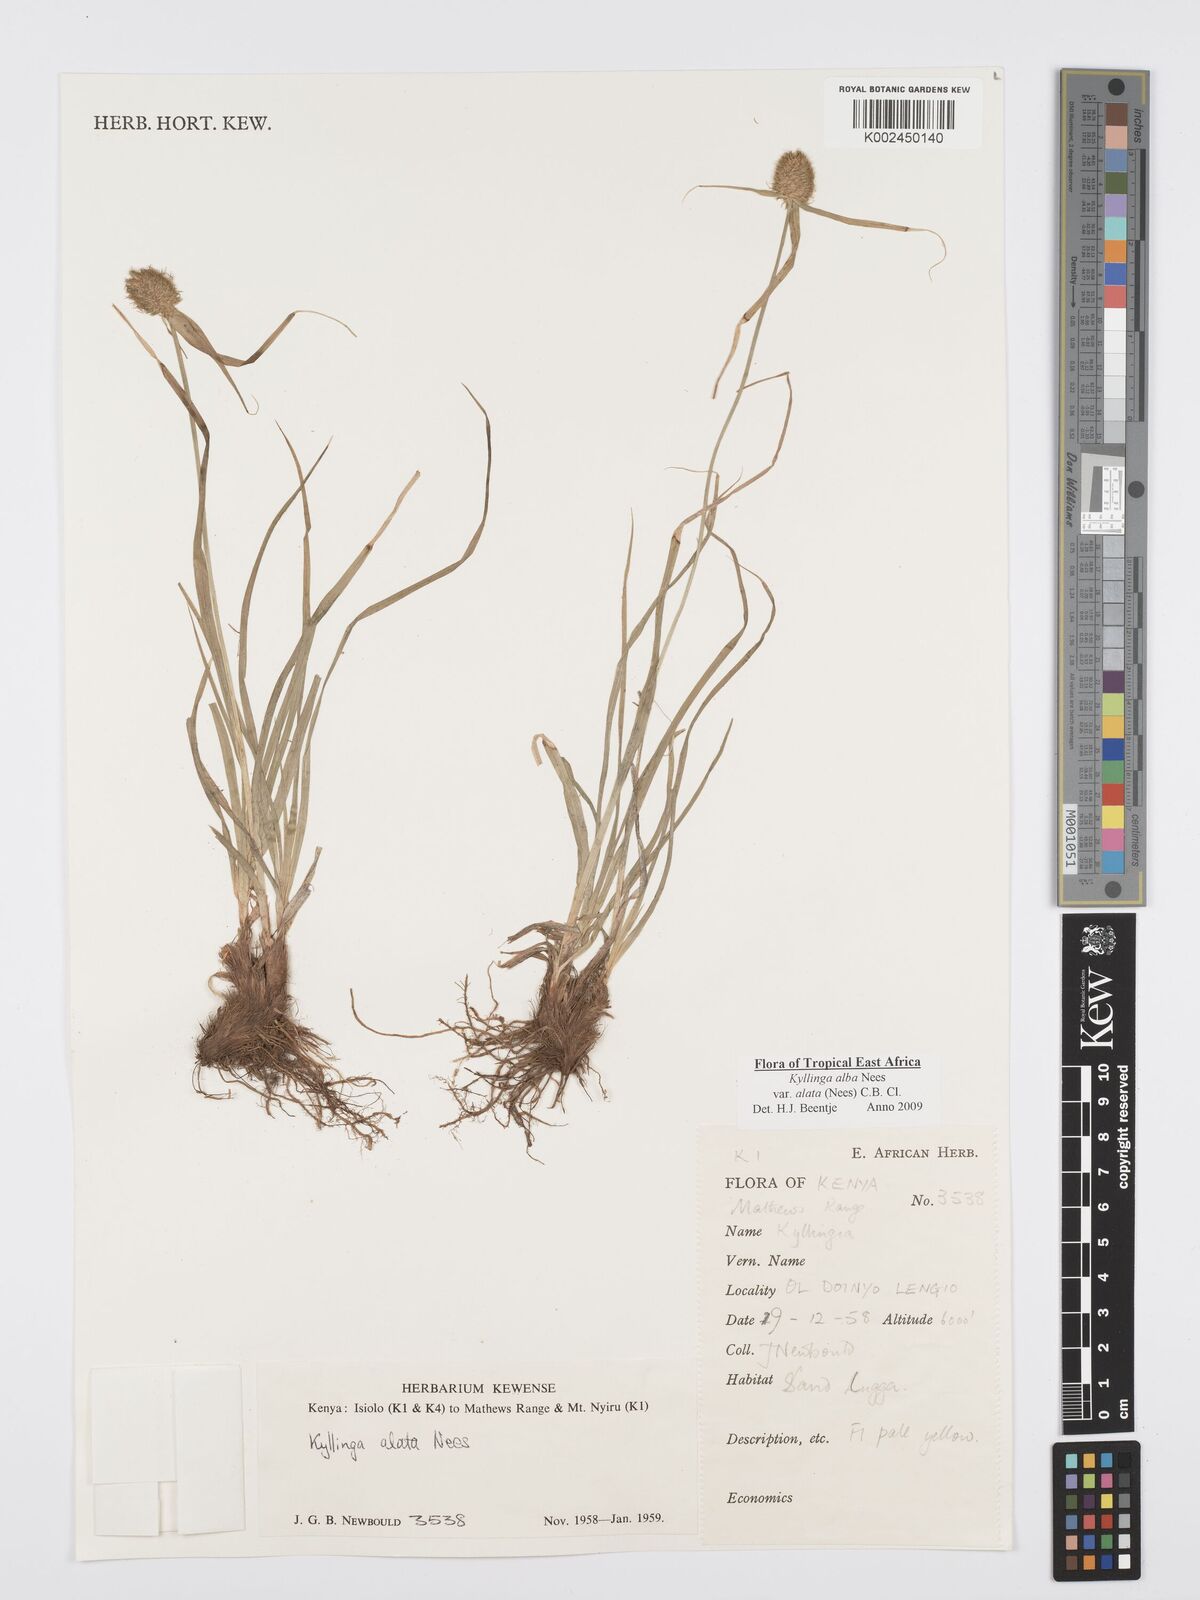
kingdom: Plantae
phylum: Tracheophyta
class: Liliopsida
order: Poales
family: Cyperaceae
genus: Cyperus
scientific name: Cyperus alatus
